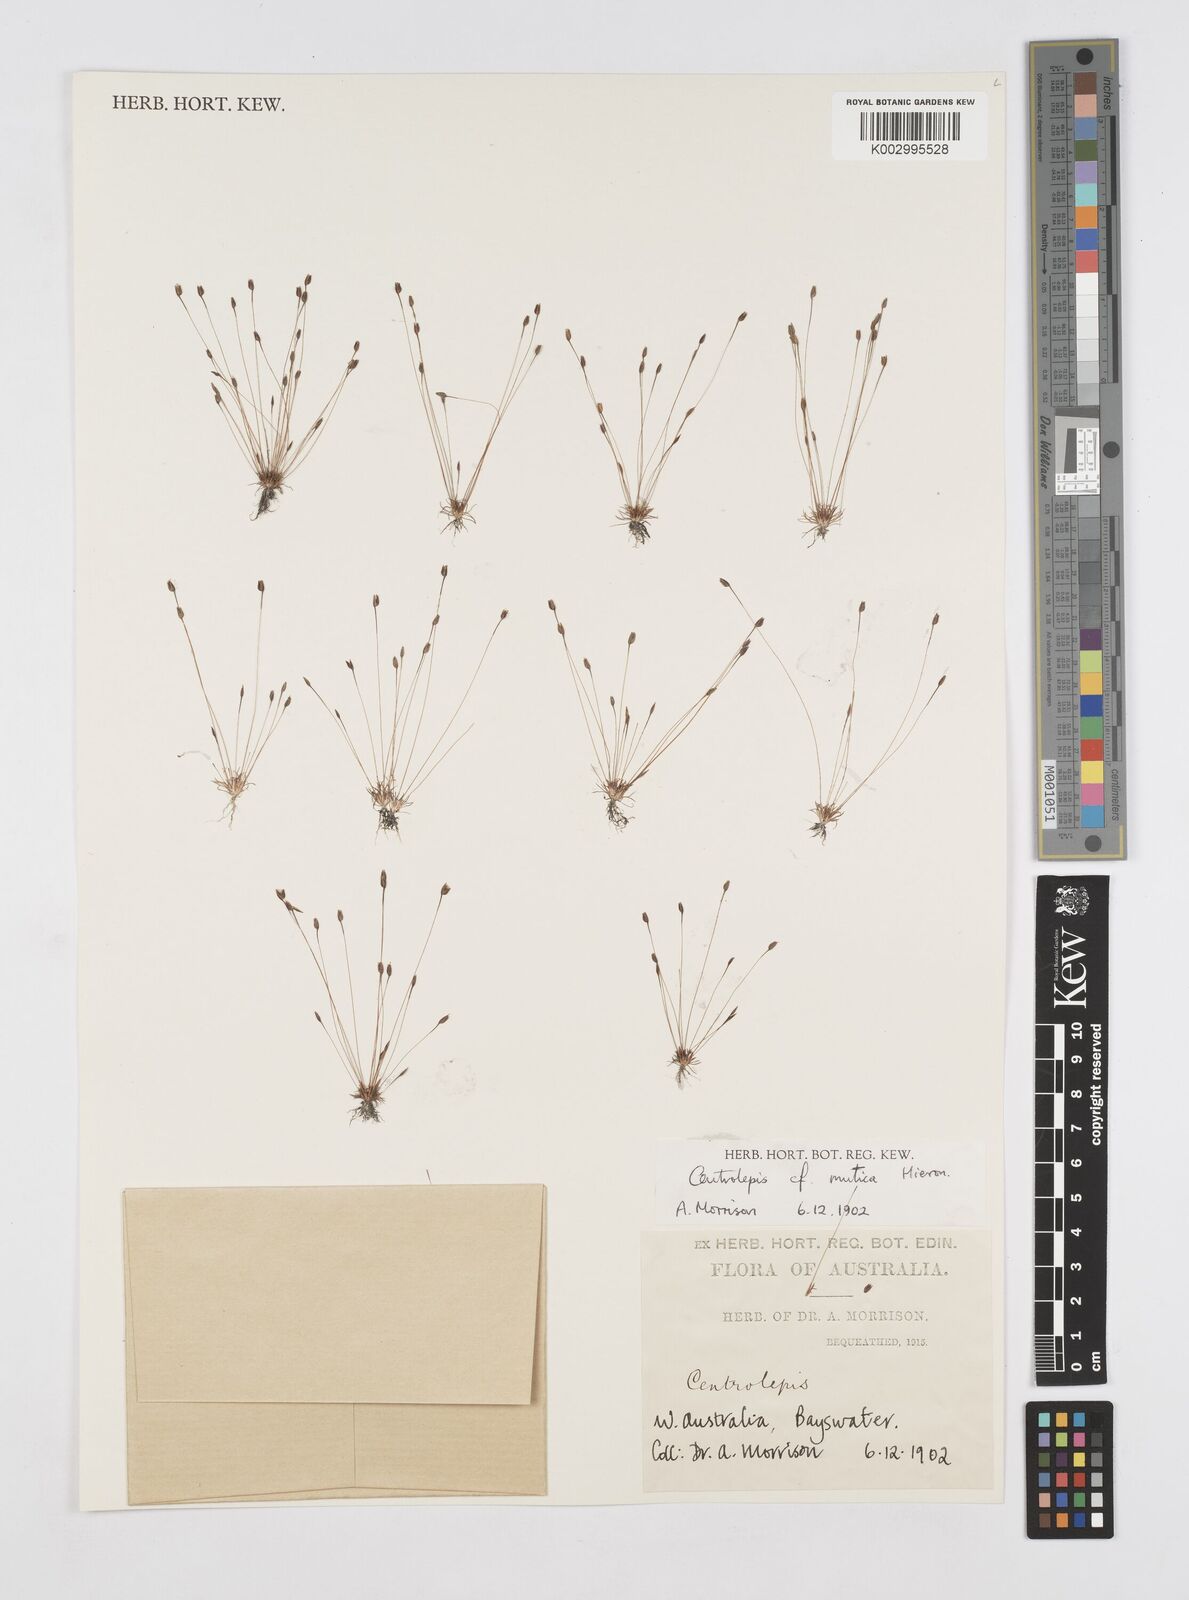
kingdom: Plantae
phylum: Tracheophyta
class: Liliopsida
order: Poales
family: Restionaceae
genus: Centrolepis
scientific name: Centrolepis mutica
